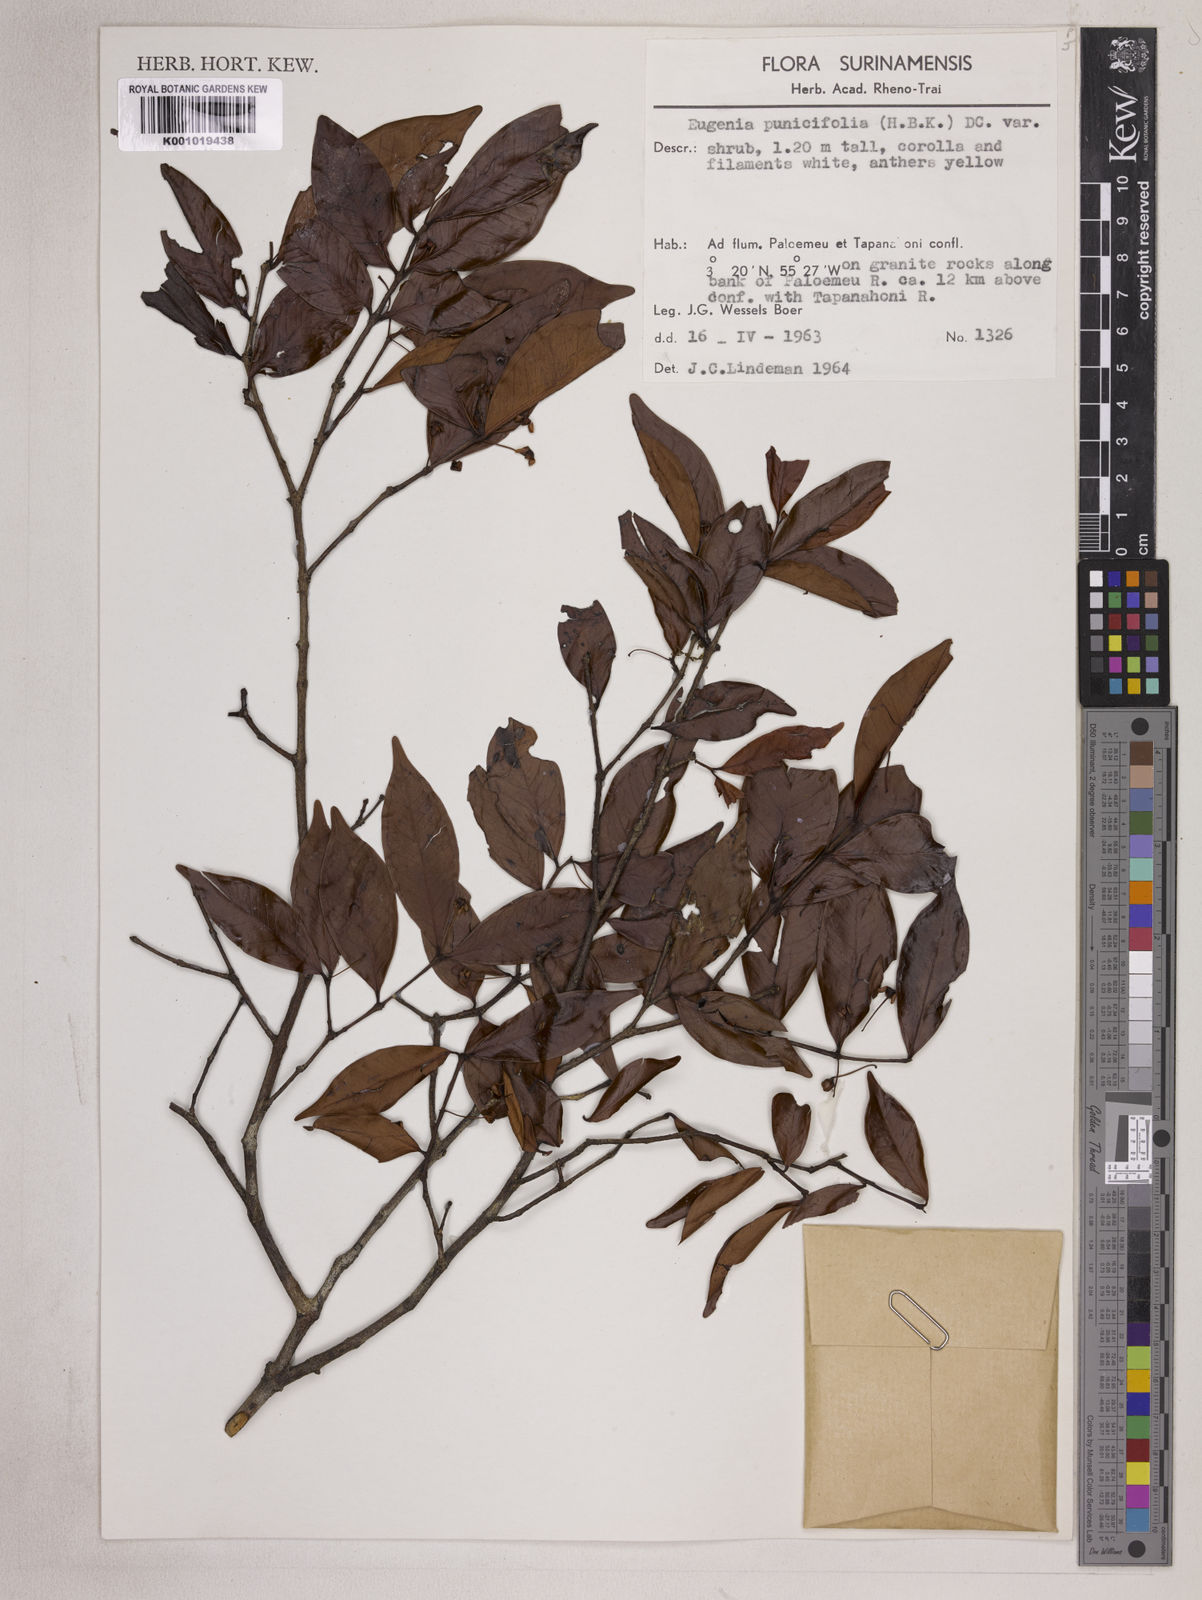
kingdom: Plantae
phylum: Tracheophyta
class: Magnoliopsida
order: Myrtales
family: Myrtaceae
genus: Eugenia
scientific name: Eugenia punicifolia
